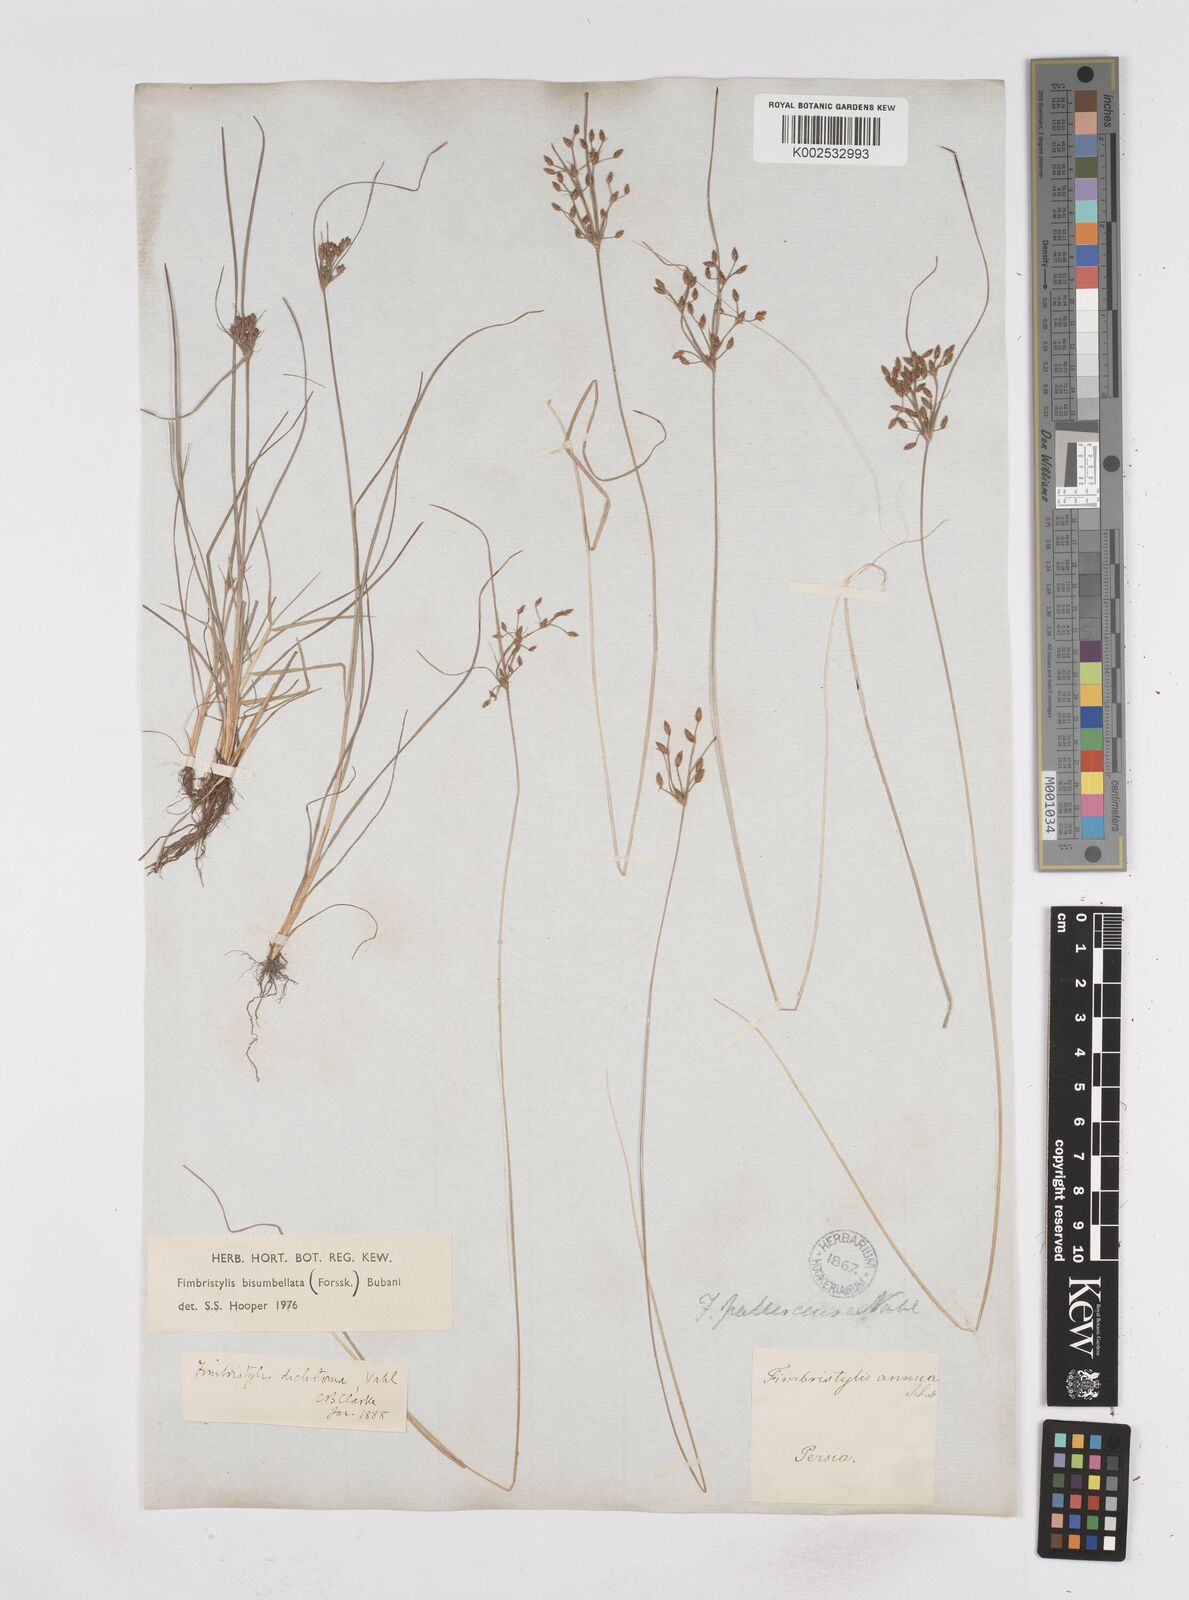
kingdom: Plantae
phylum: Tracheophyta
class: Liliopsida
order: Poales
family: Cyperaceae
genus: Fimbristylis
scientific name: Fimbristylis bisumbellata
